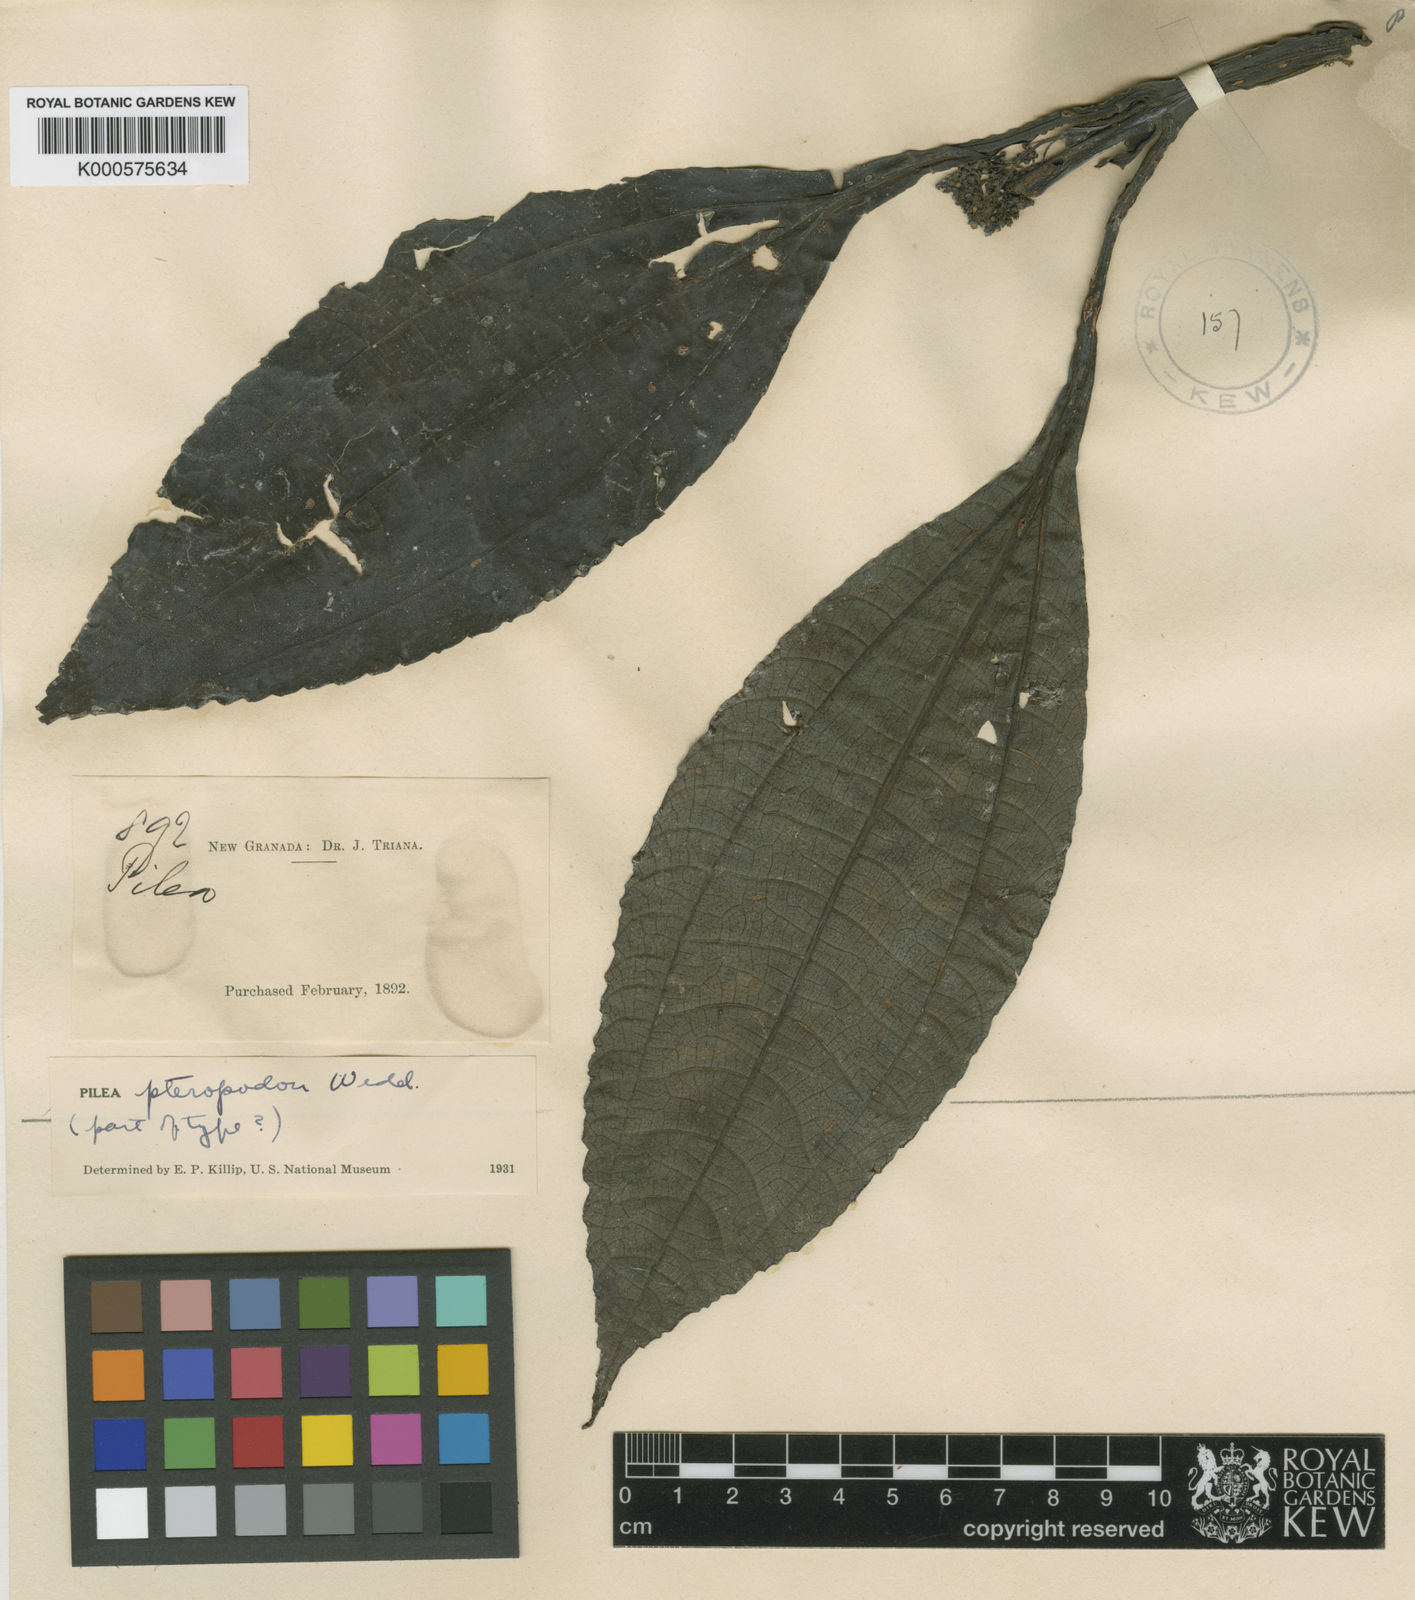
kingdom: Plantae
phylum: Tracheophyta
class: Magnoliopsida
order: Rosales
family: Urticaceae
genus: Pilea
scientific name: Pilea pteropodon
